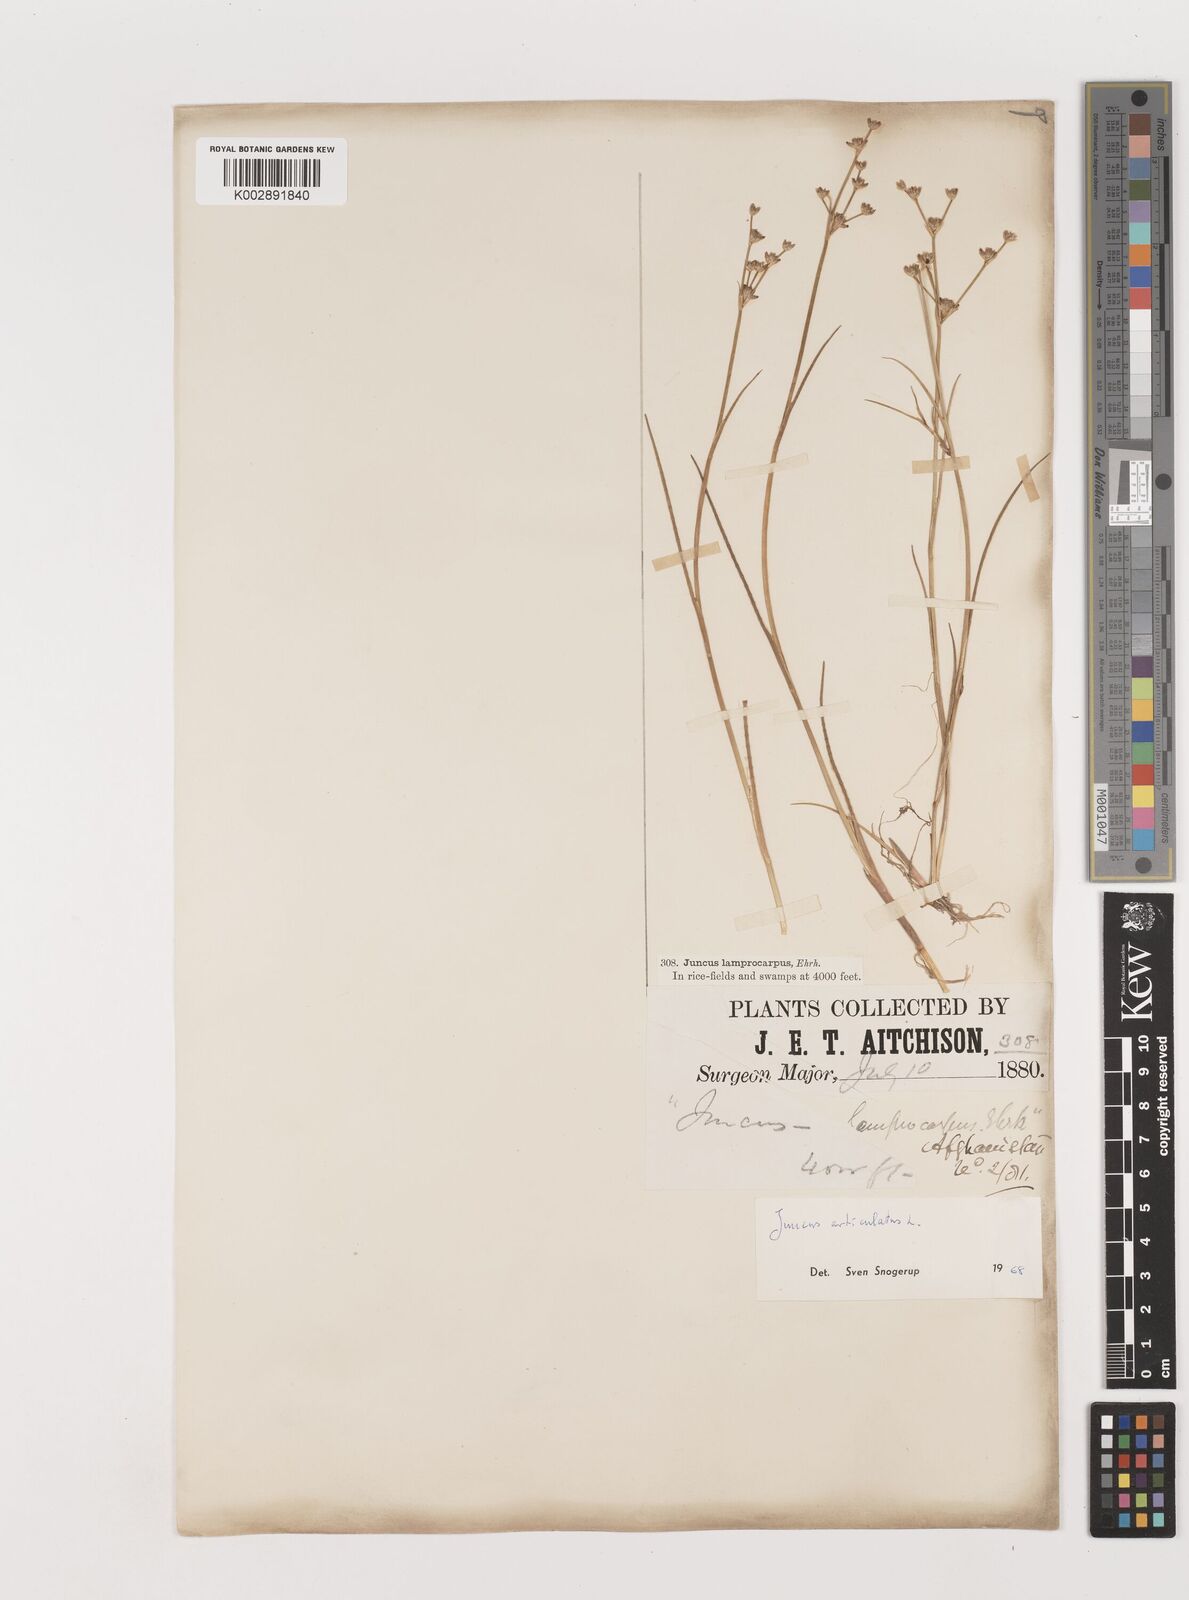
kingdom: Plantae
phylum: Tracheophyta
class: Liliopsida
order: Poales
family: Juncaceae
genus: Juncus
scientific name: Juncus articulatus
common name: Jointed rush
